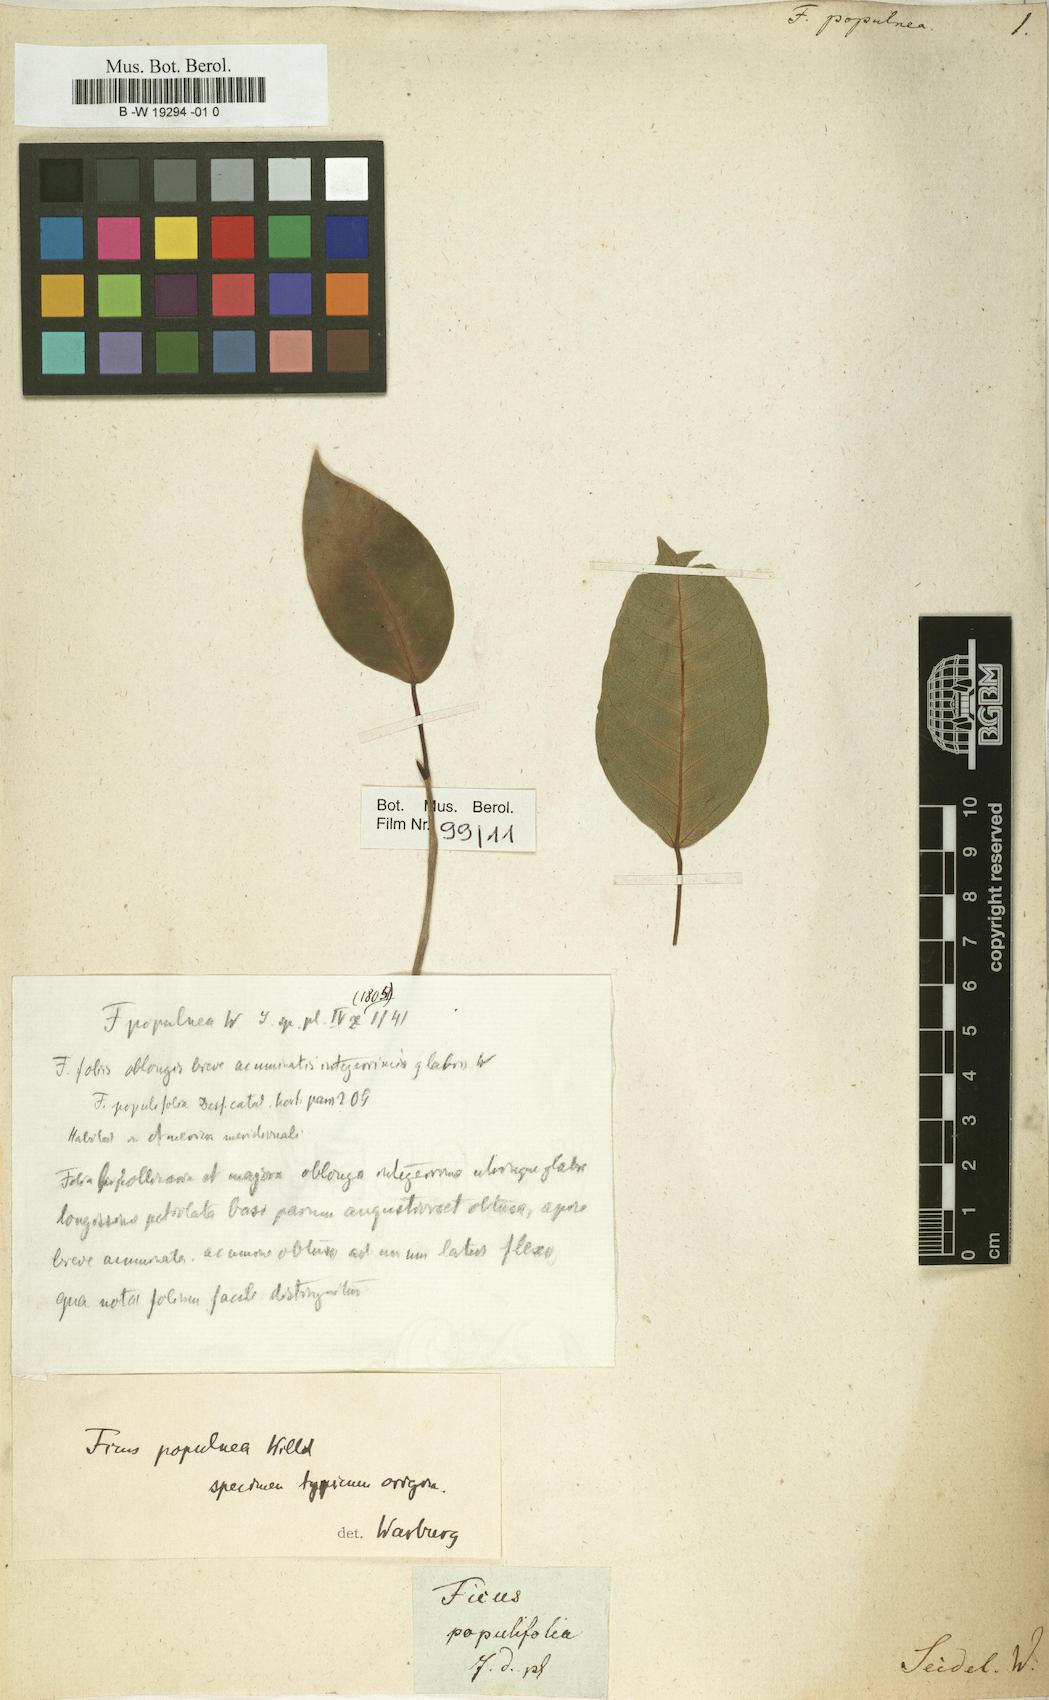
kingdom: Plantae
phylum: Tracheophyta
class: Magnoliopsida
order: Rosales
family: Moraceae
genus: Ficus
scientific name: Ficus
